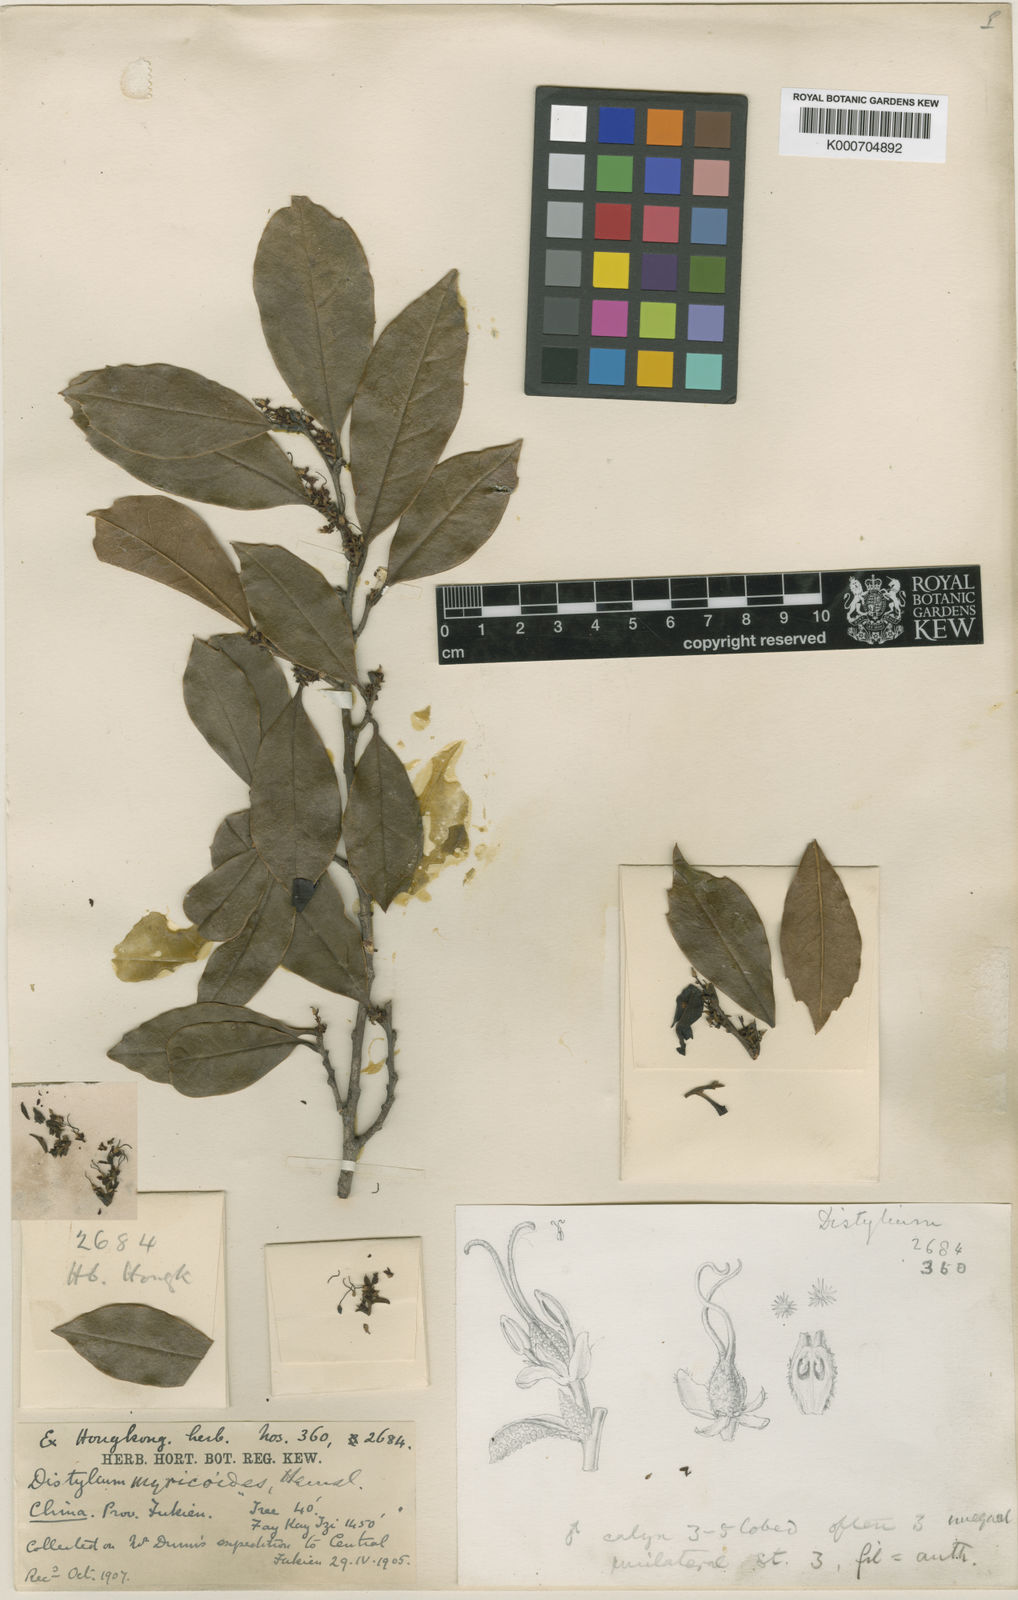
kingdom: Plantae
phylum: Tracheophyta
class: Magnoliopsida
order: Saxifragales
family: Hamamelidaceae
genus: Distylium
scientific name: Distylium myricoides
